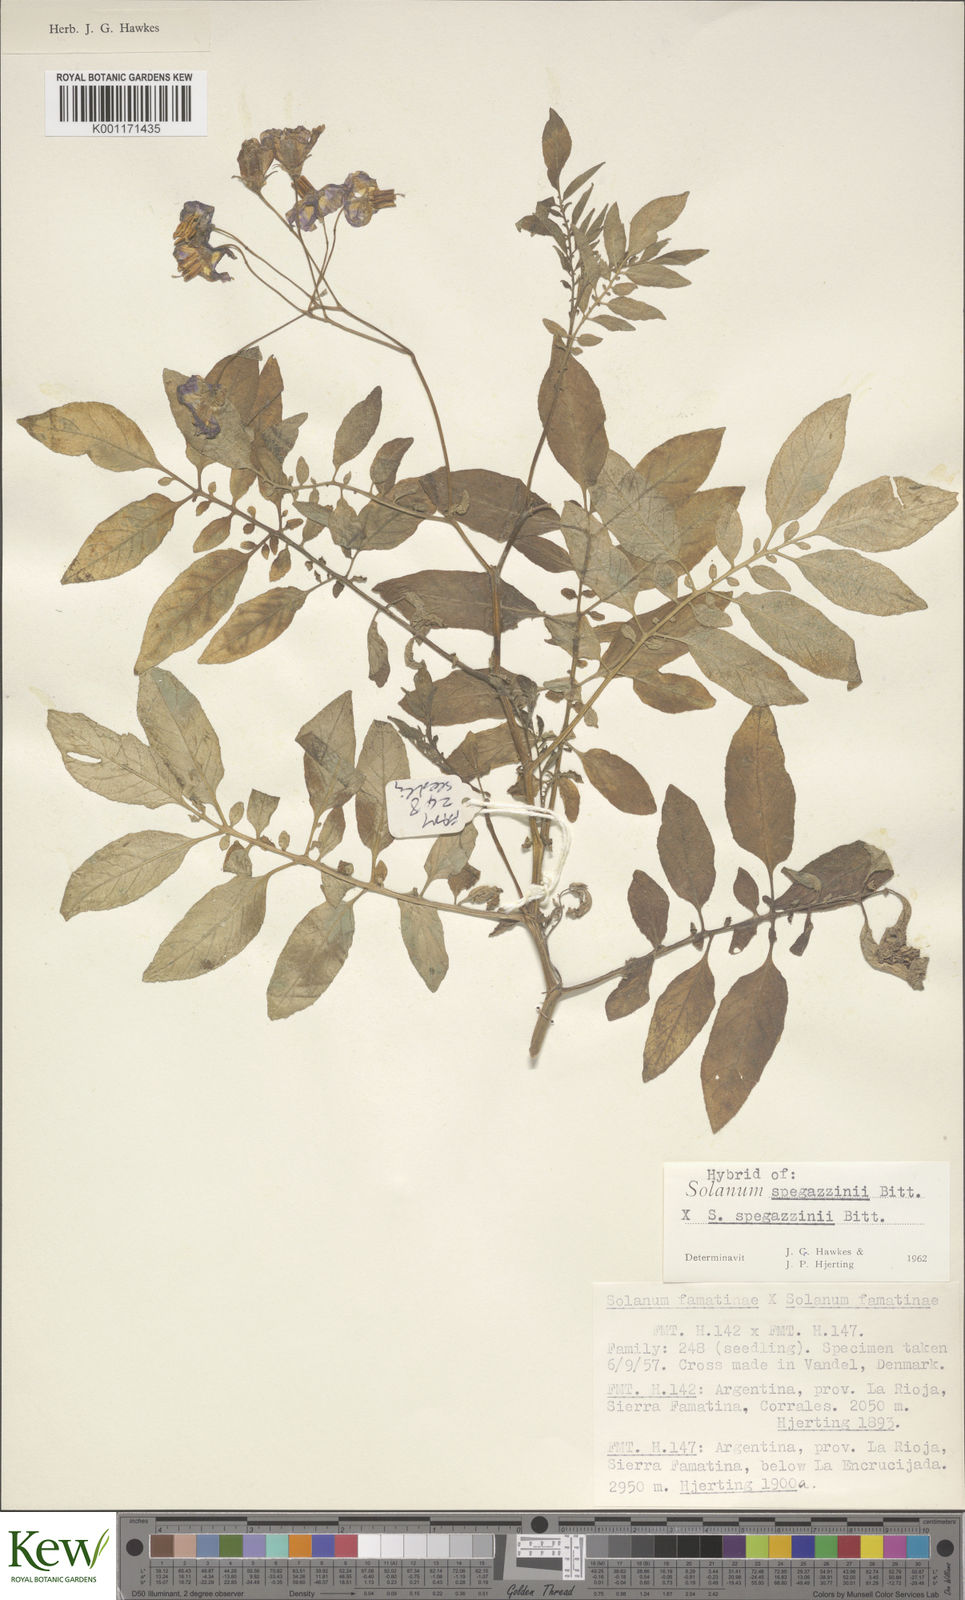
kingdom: Plantae
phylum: Tracheophyta
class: Magnoliopsida
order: Solanales
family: Solanaceae
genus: Solanum
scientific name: Solanum brevicaule
